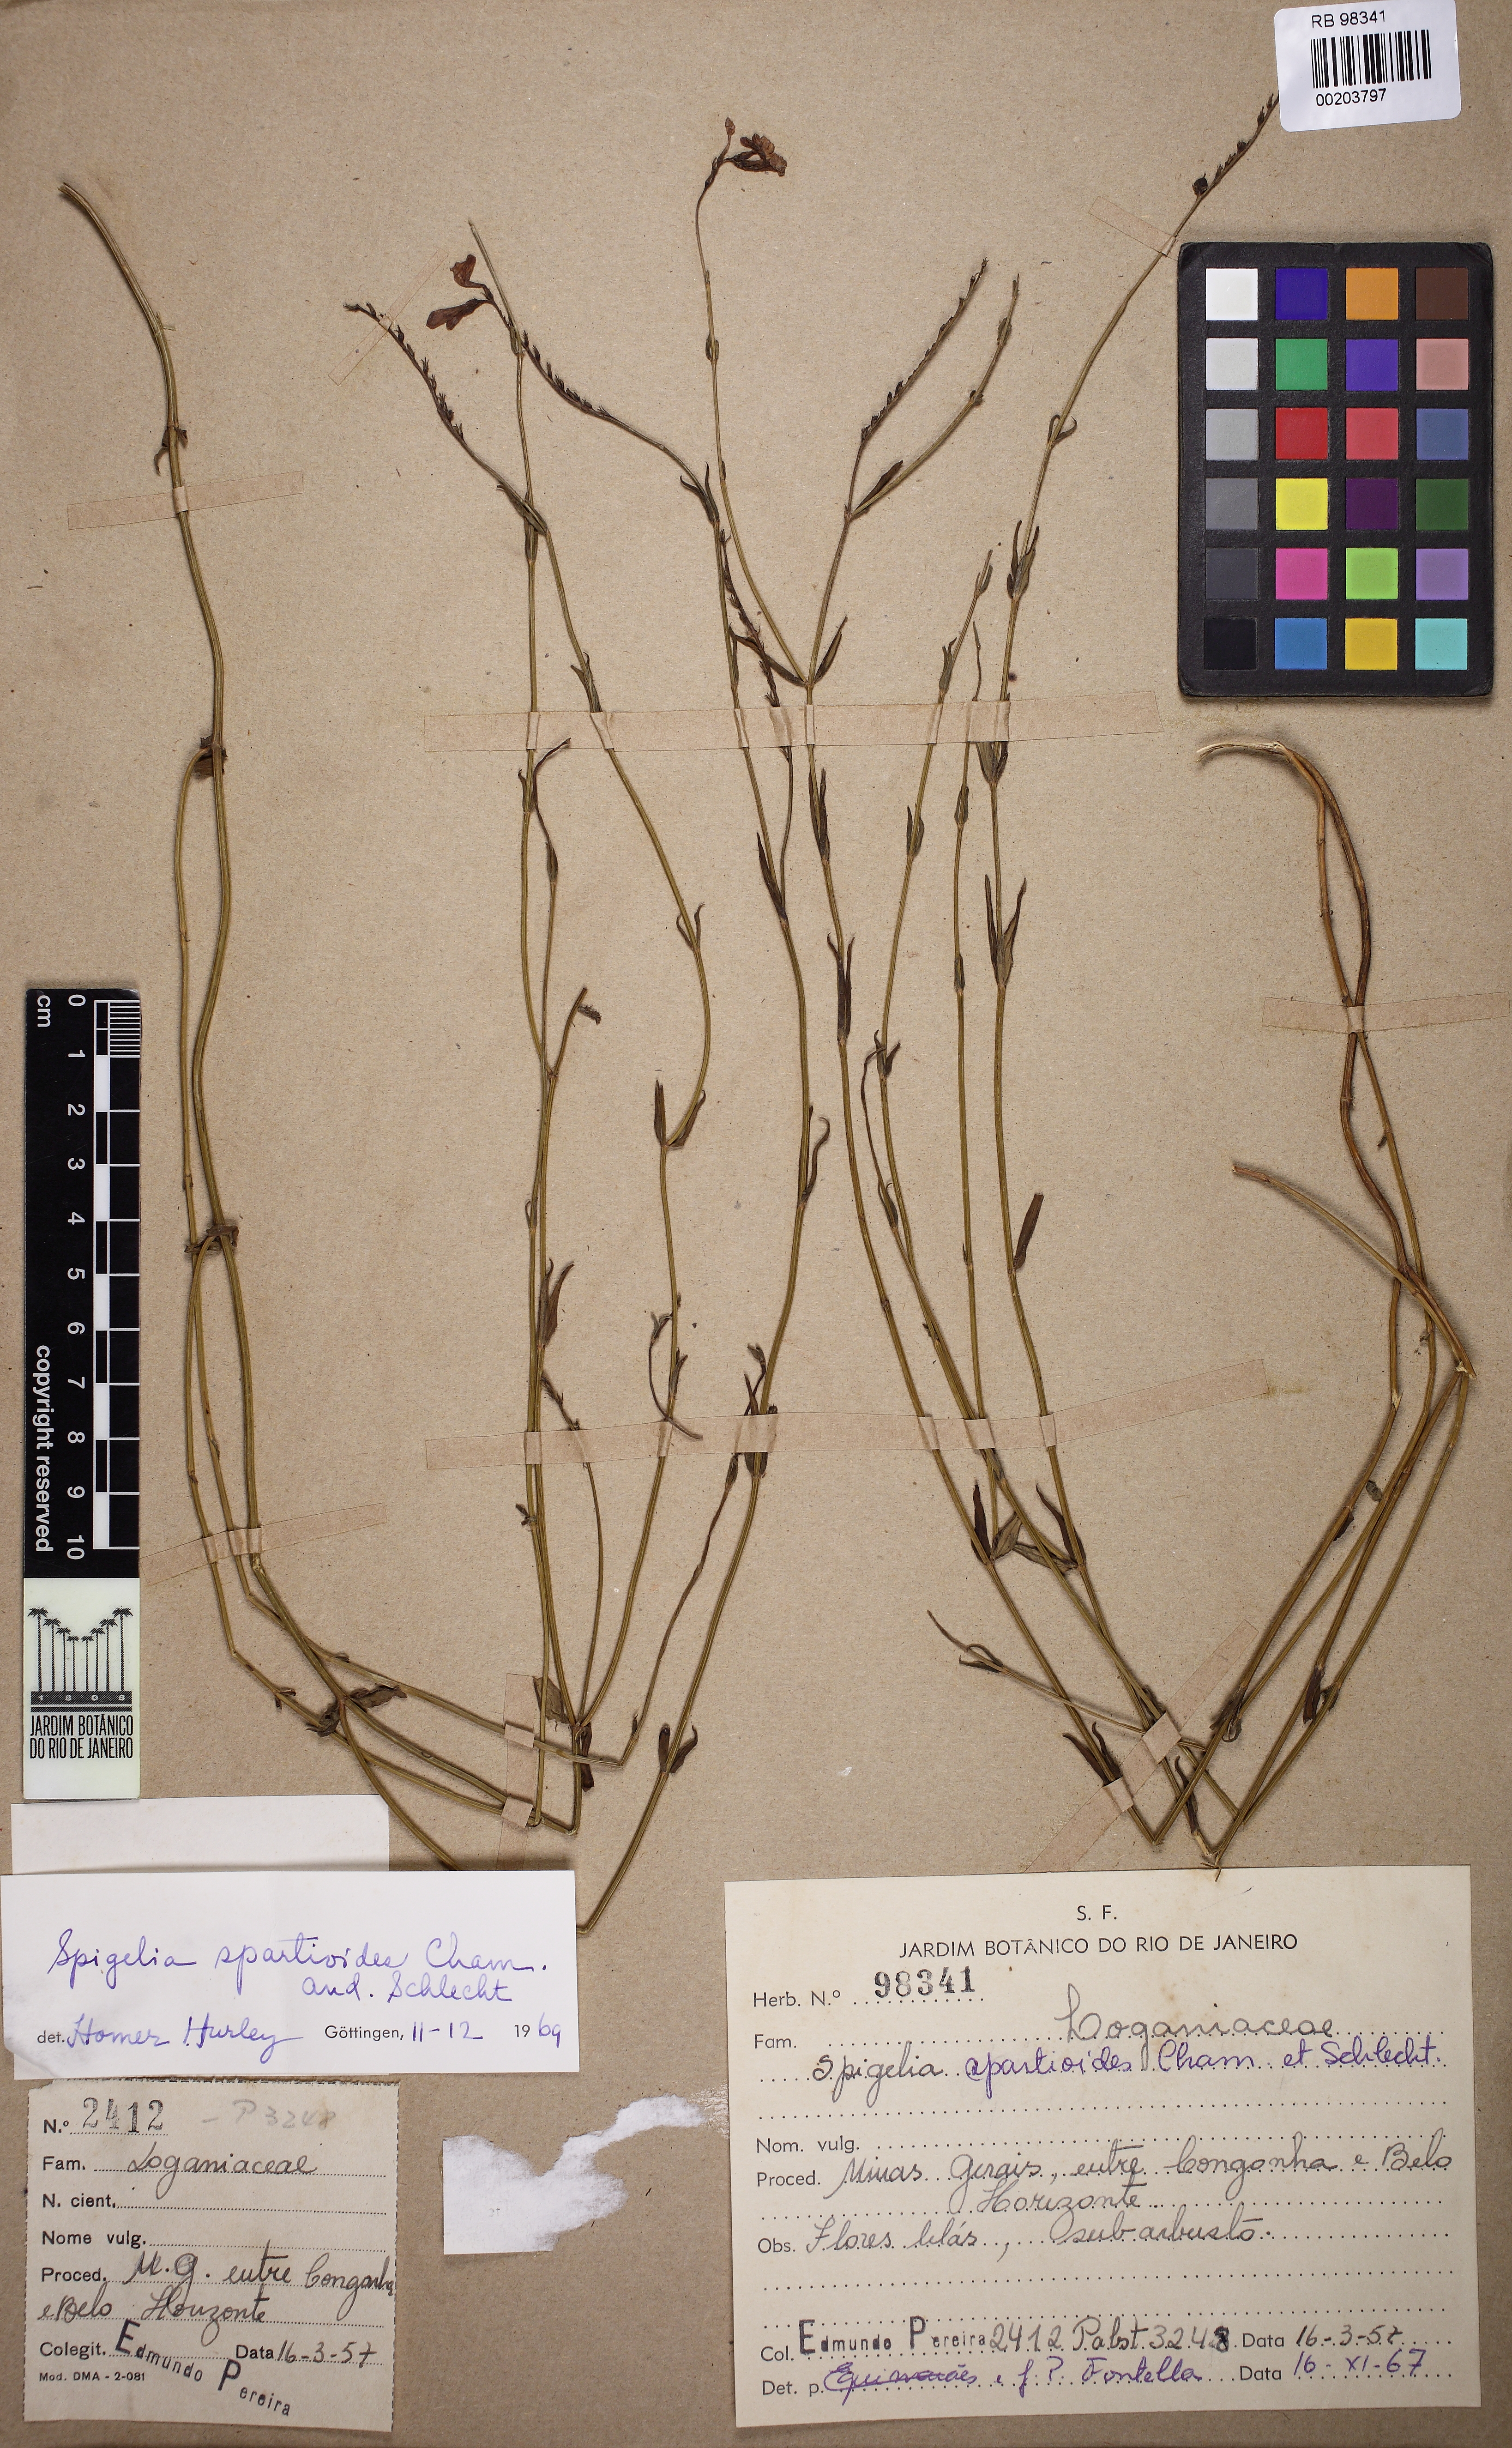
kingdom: Plantae
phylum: Tracheophyta
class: Magnoliopsida
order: Gentianales
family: Loganiaceae
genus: Spigelia
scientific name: Spigelia spartioides
